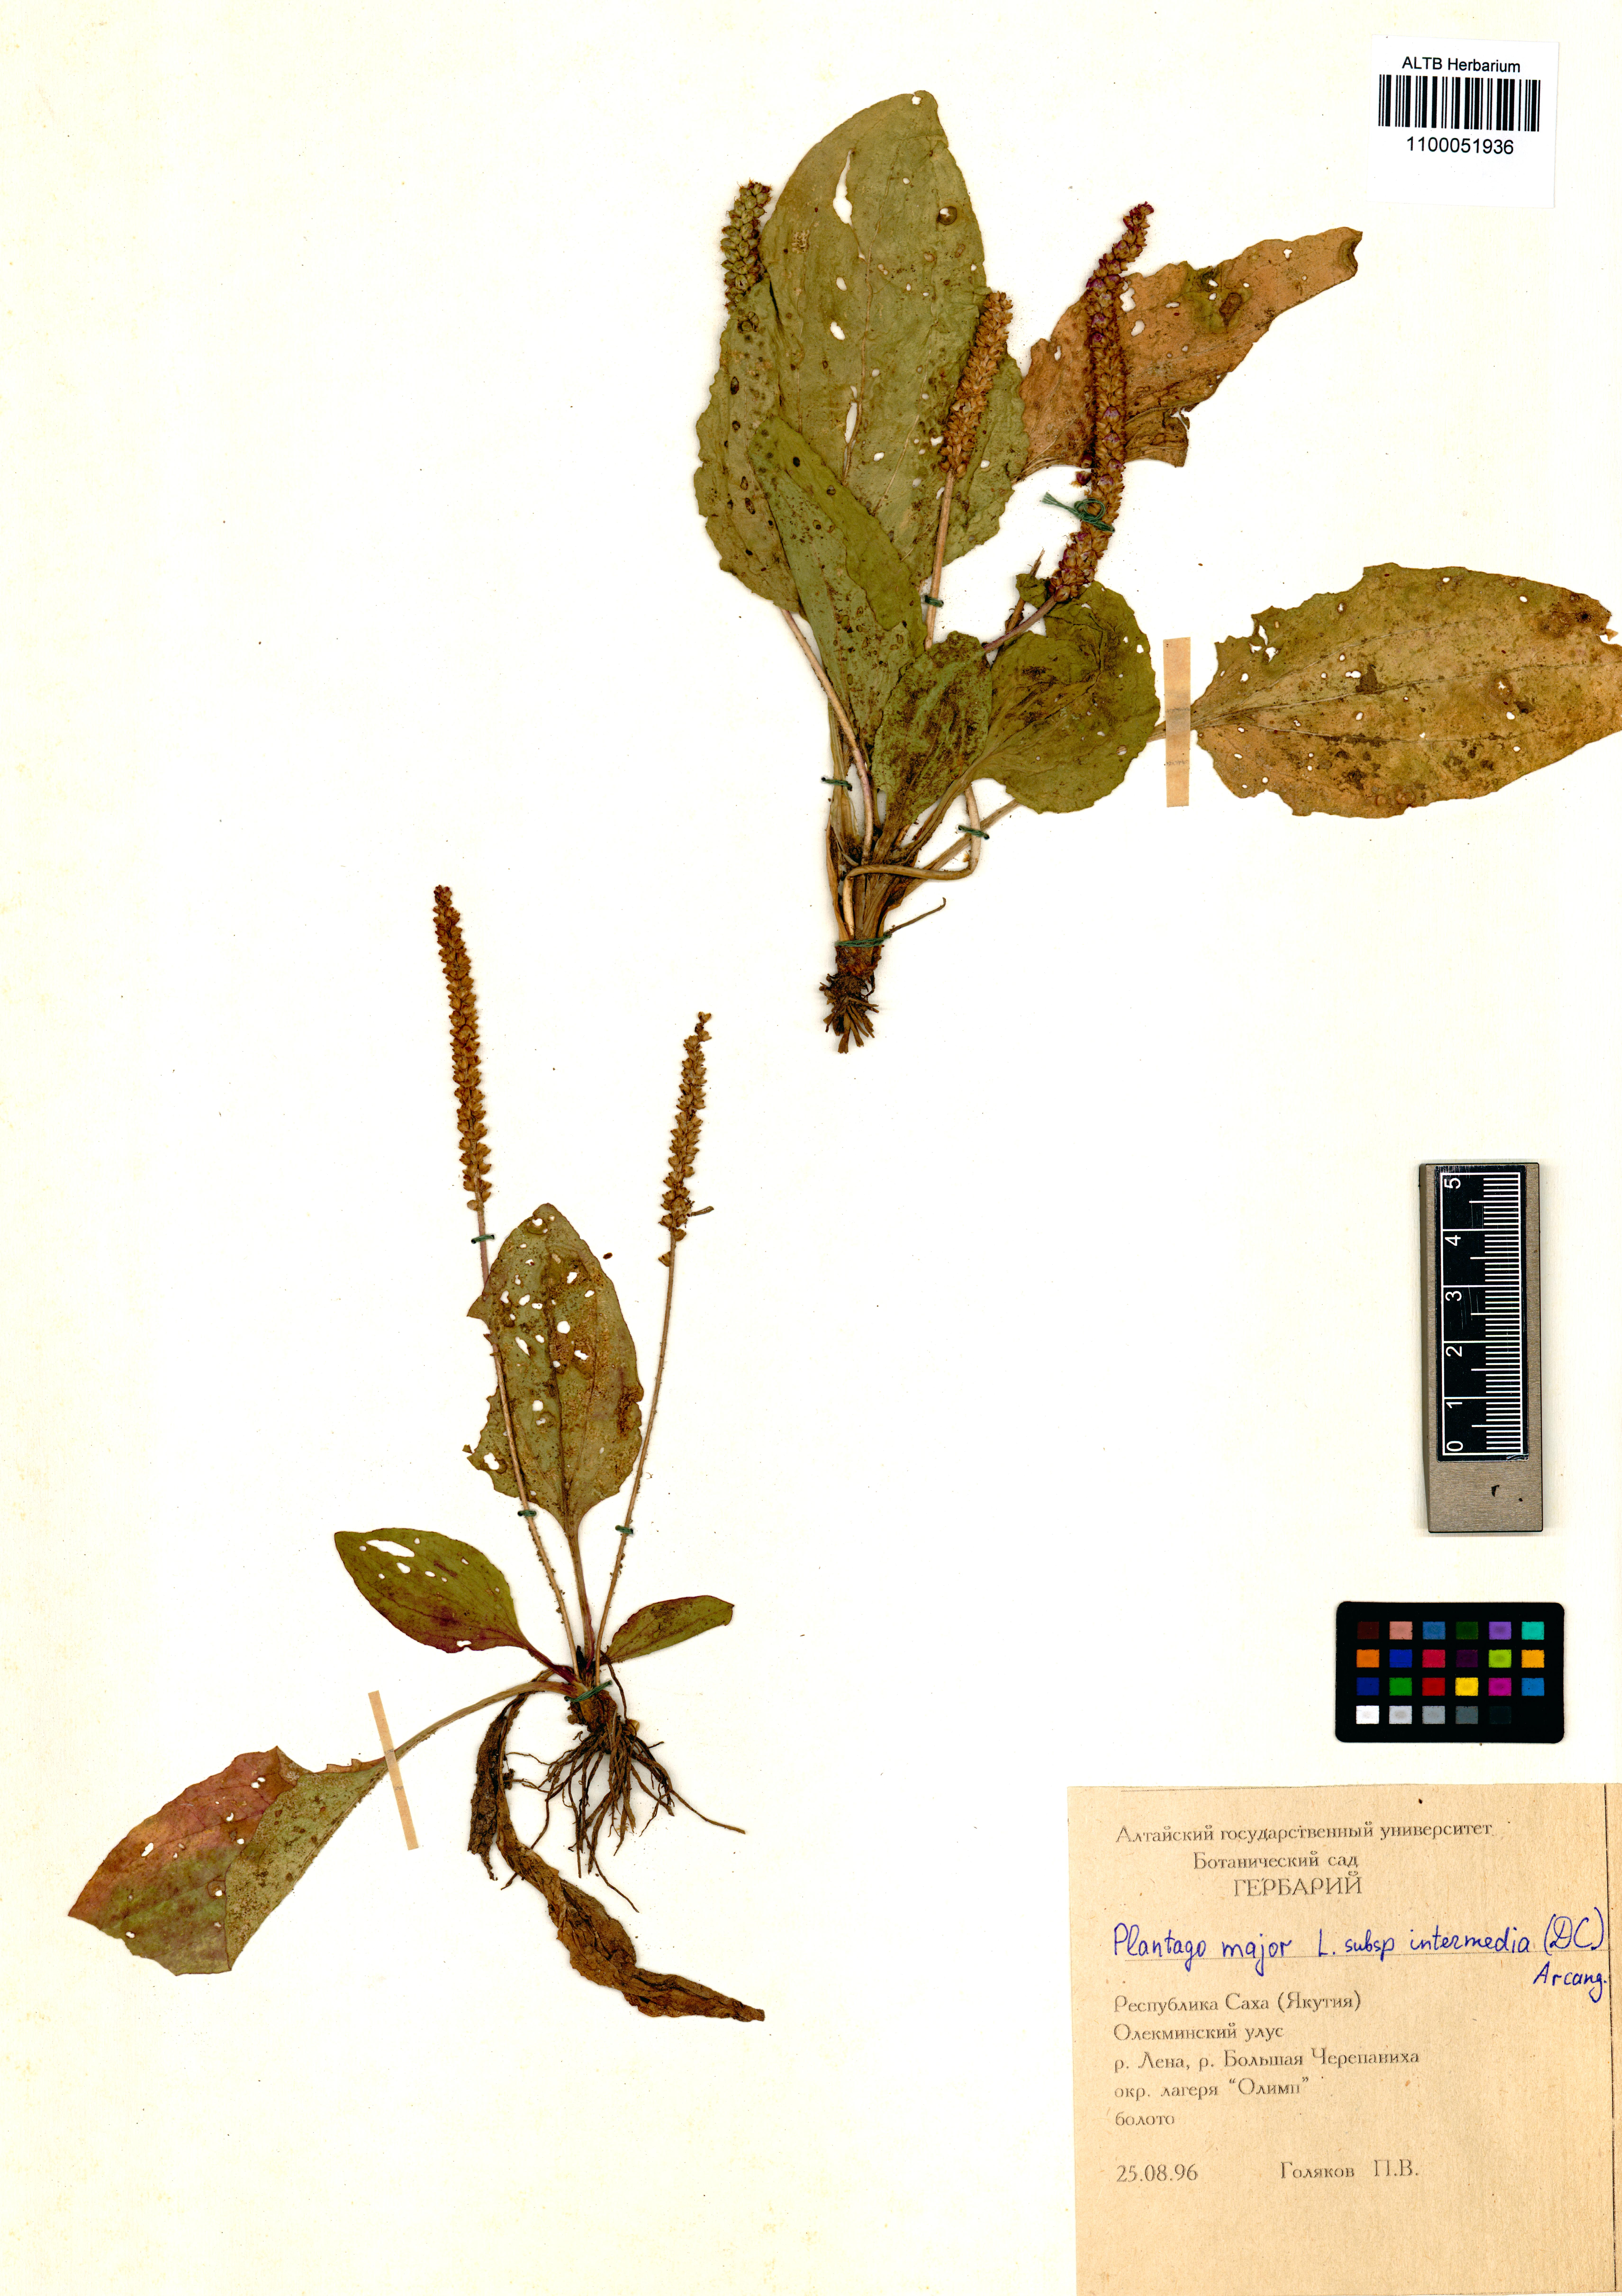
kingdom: Plantae
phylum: Tracheophyta
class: Magnoliopsida
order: Lamiales
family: Plantaginaceae
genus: Plantago
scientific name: Plantago major
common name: Common plantain
